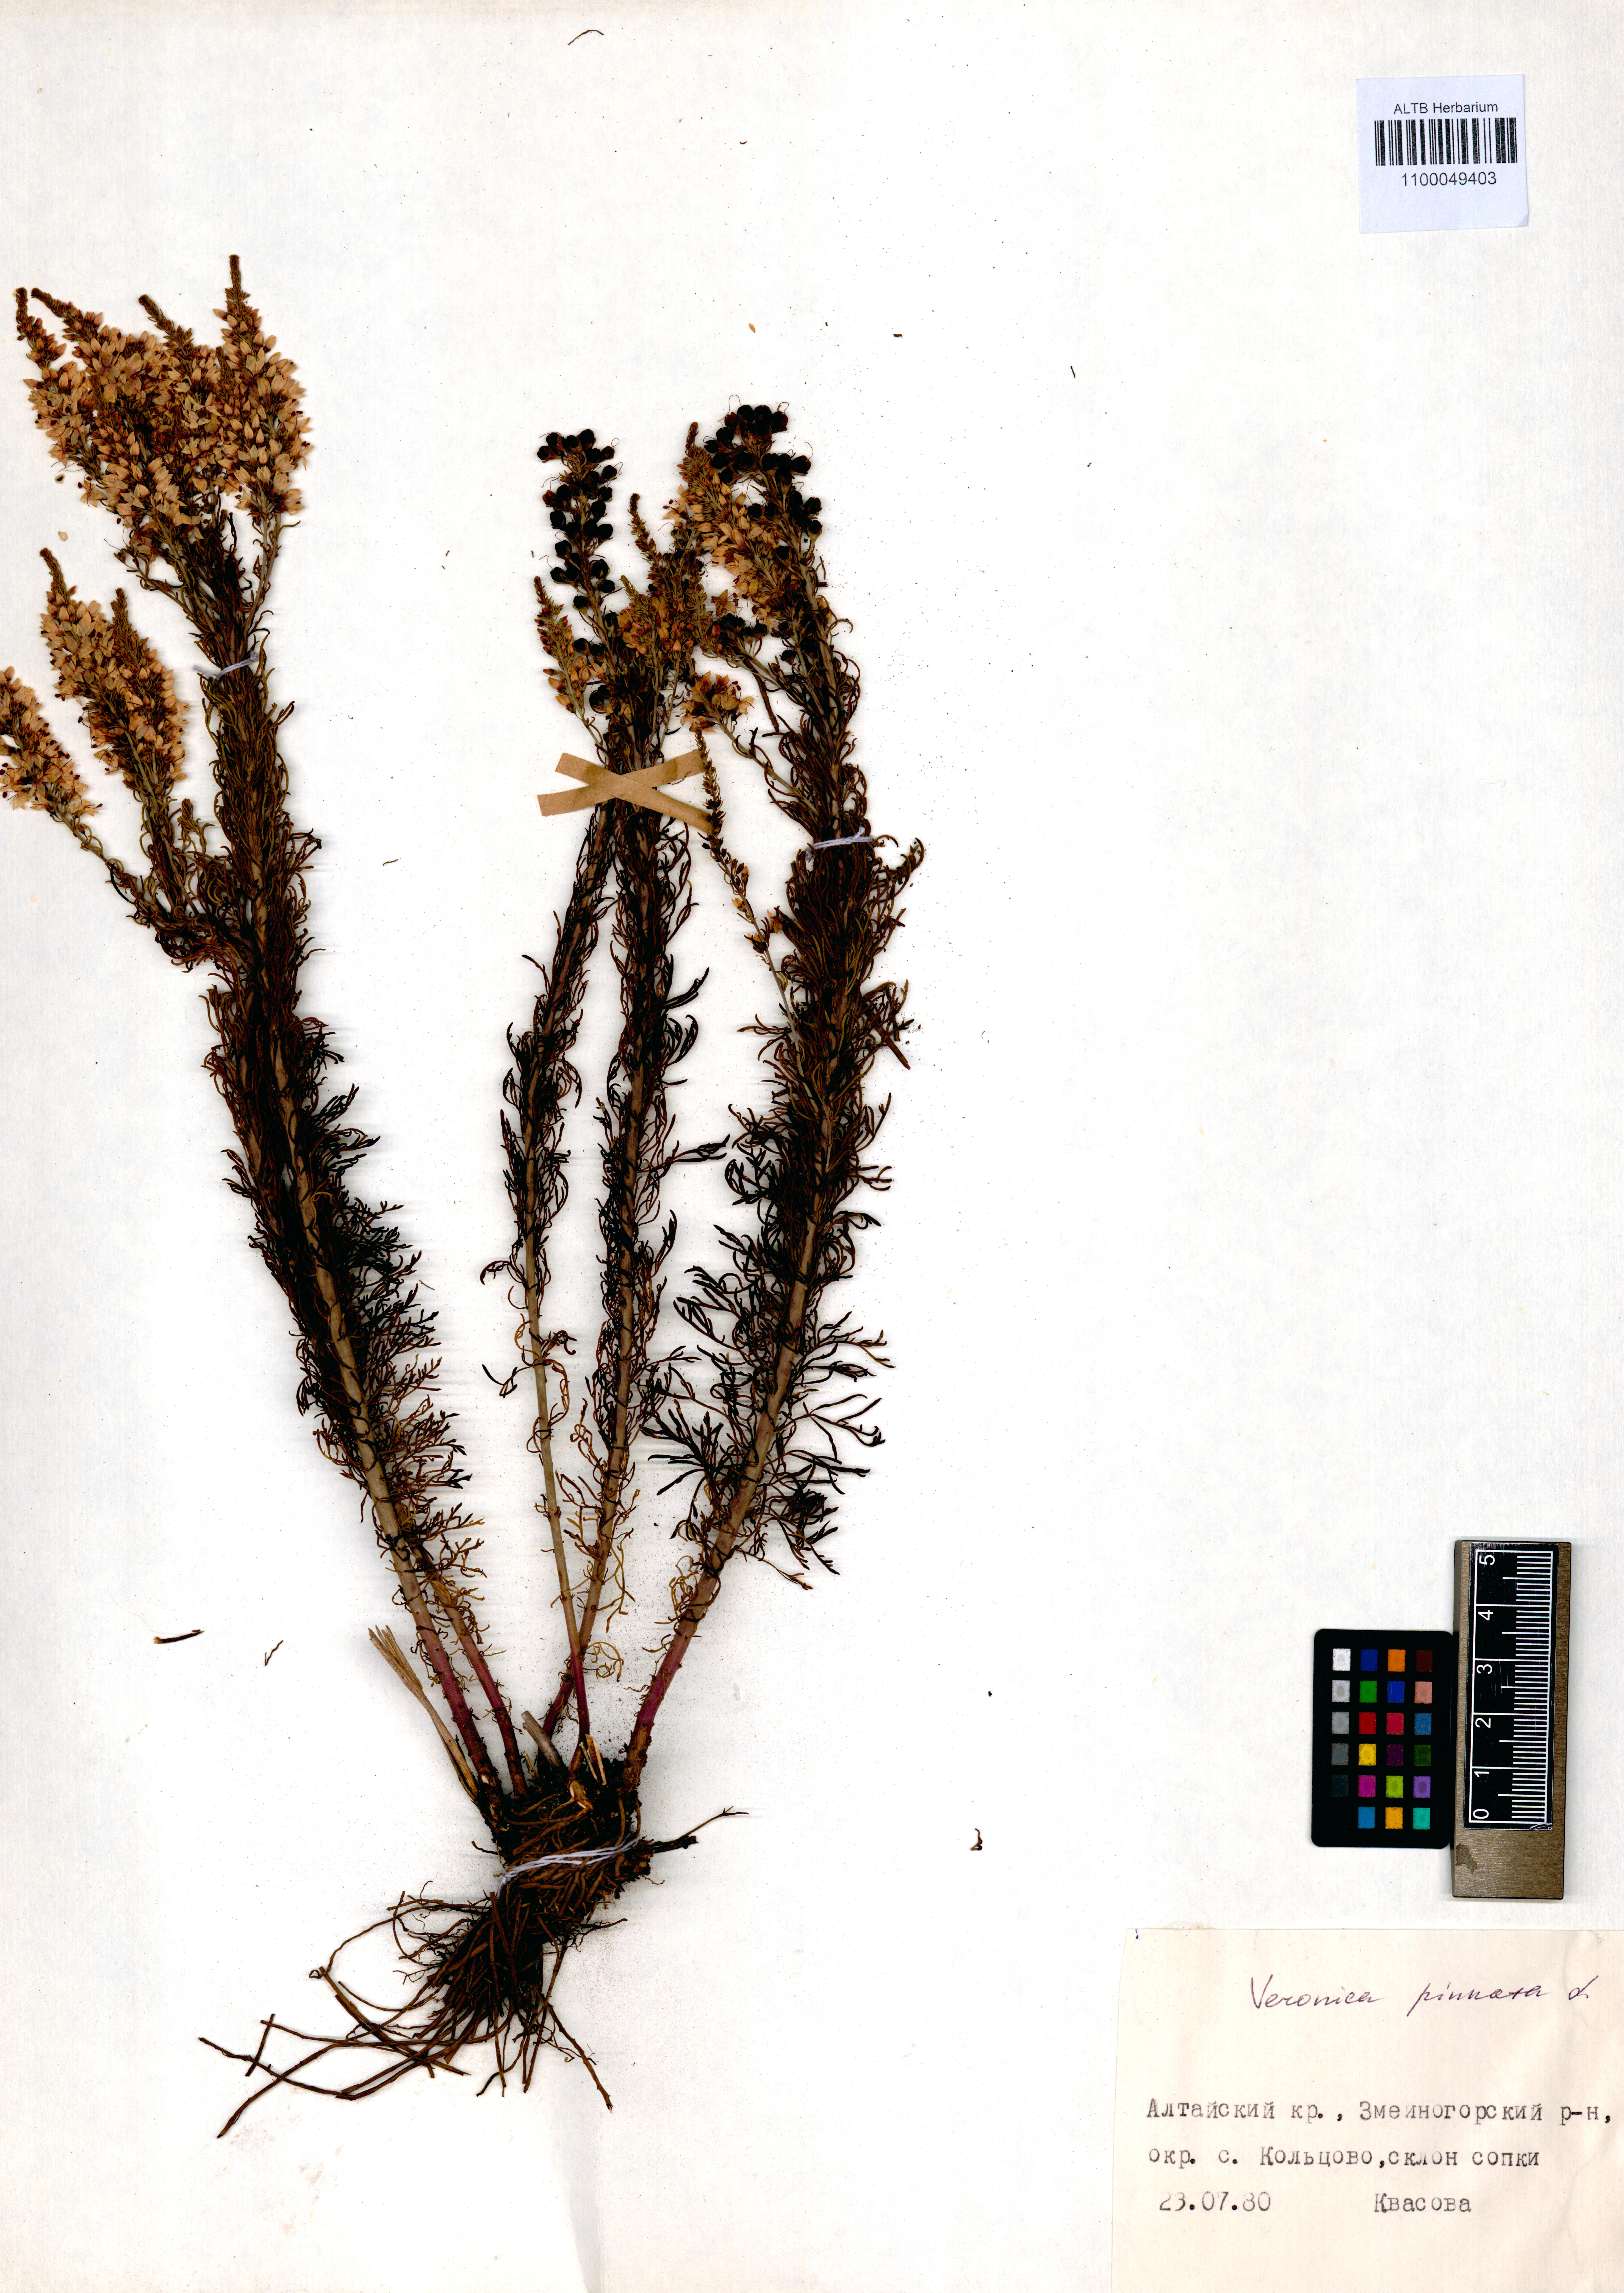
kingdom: Plantae
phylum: Tracheophyta
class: Magnoliopsida
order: Lamiales
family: Plantaginaceae
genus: Veronica
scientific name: Veronica pinnata
